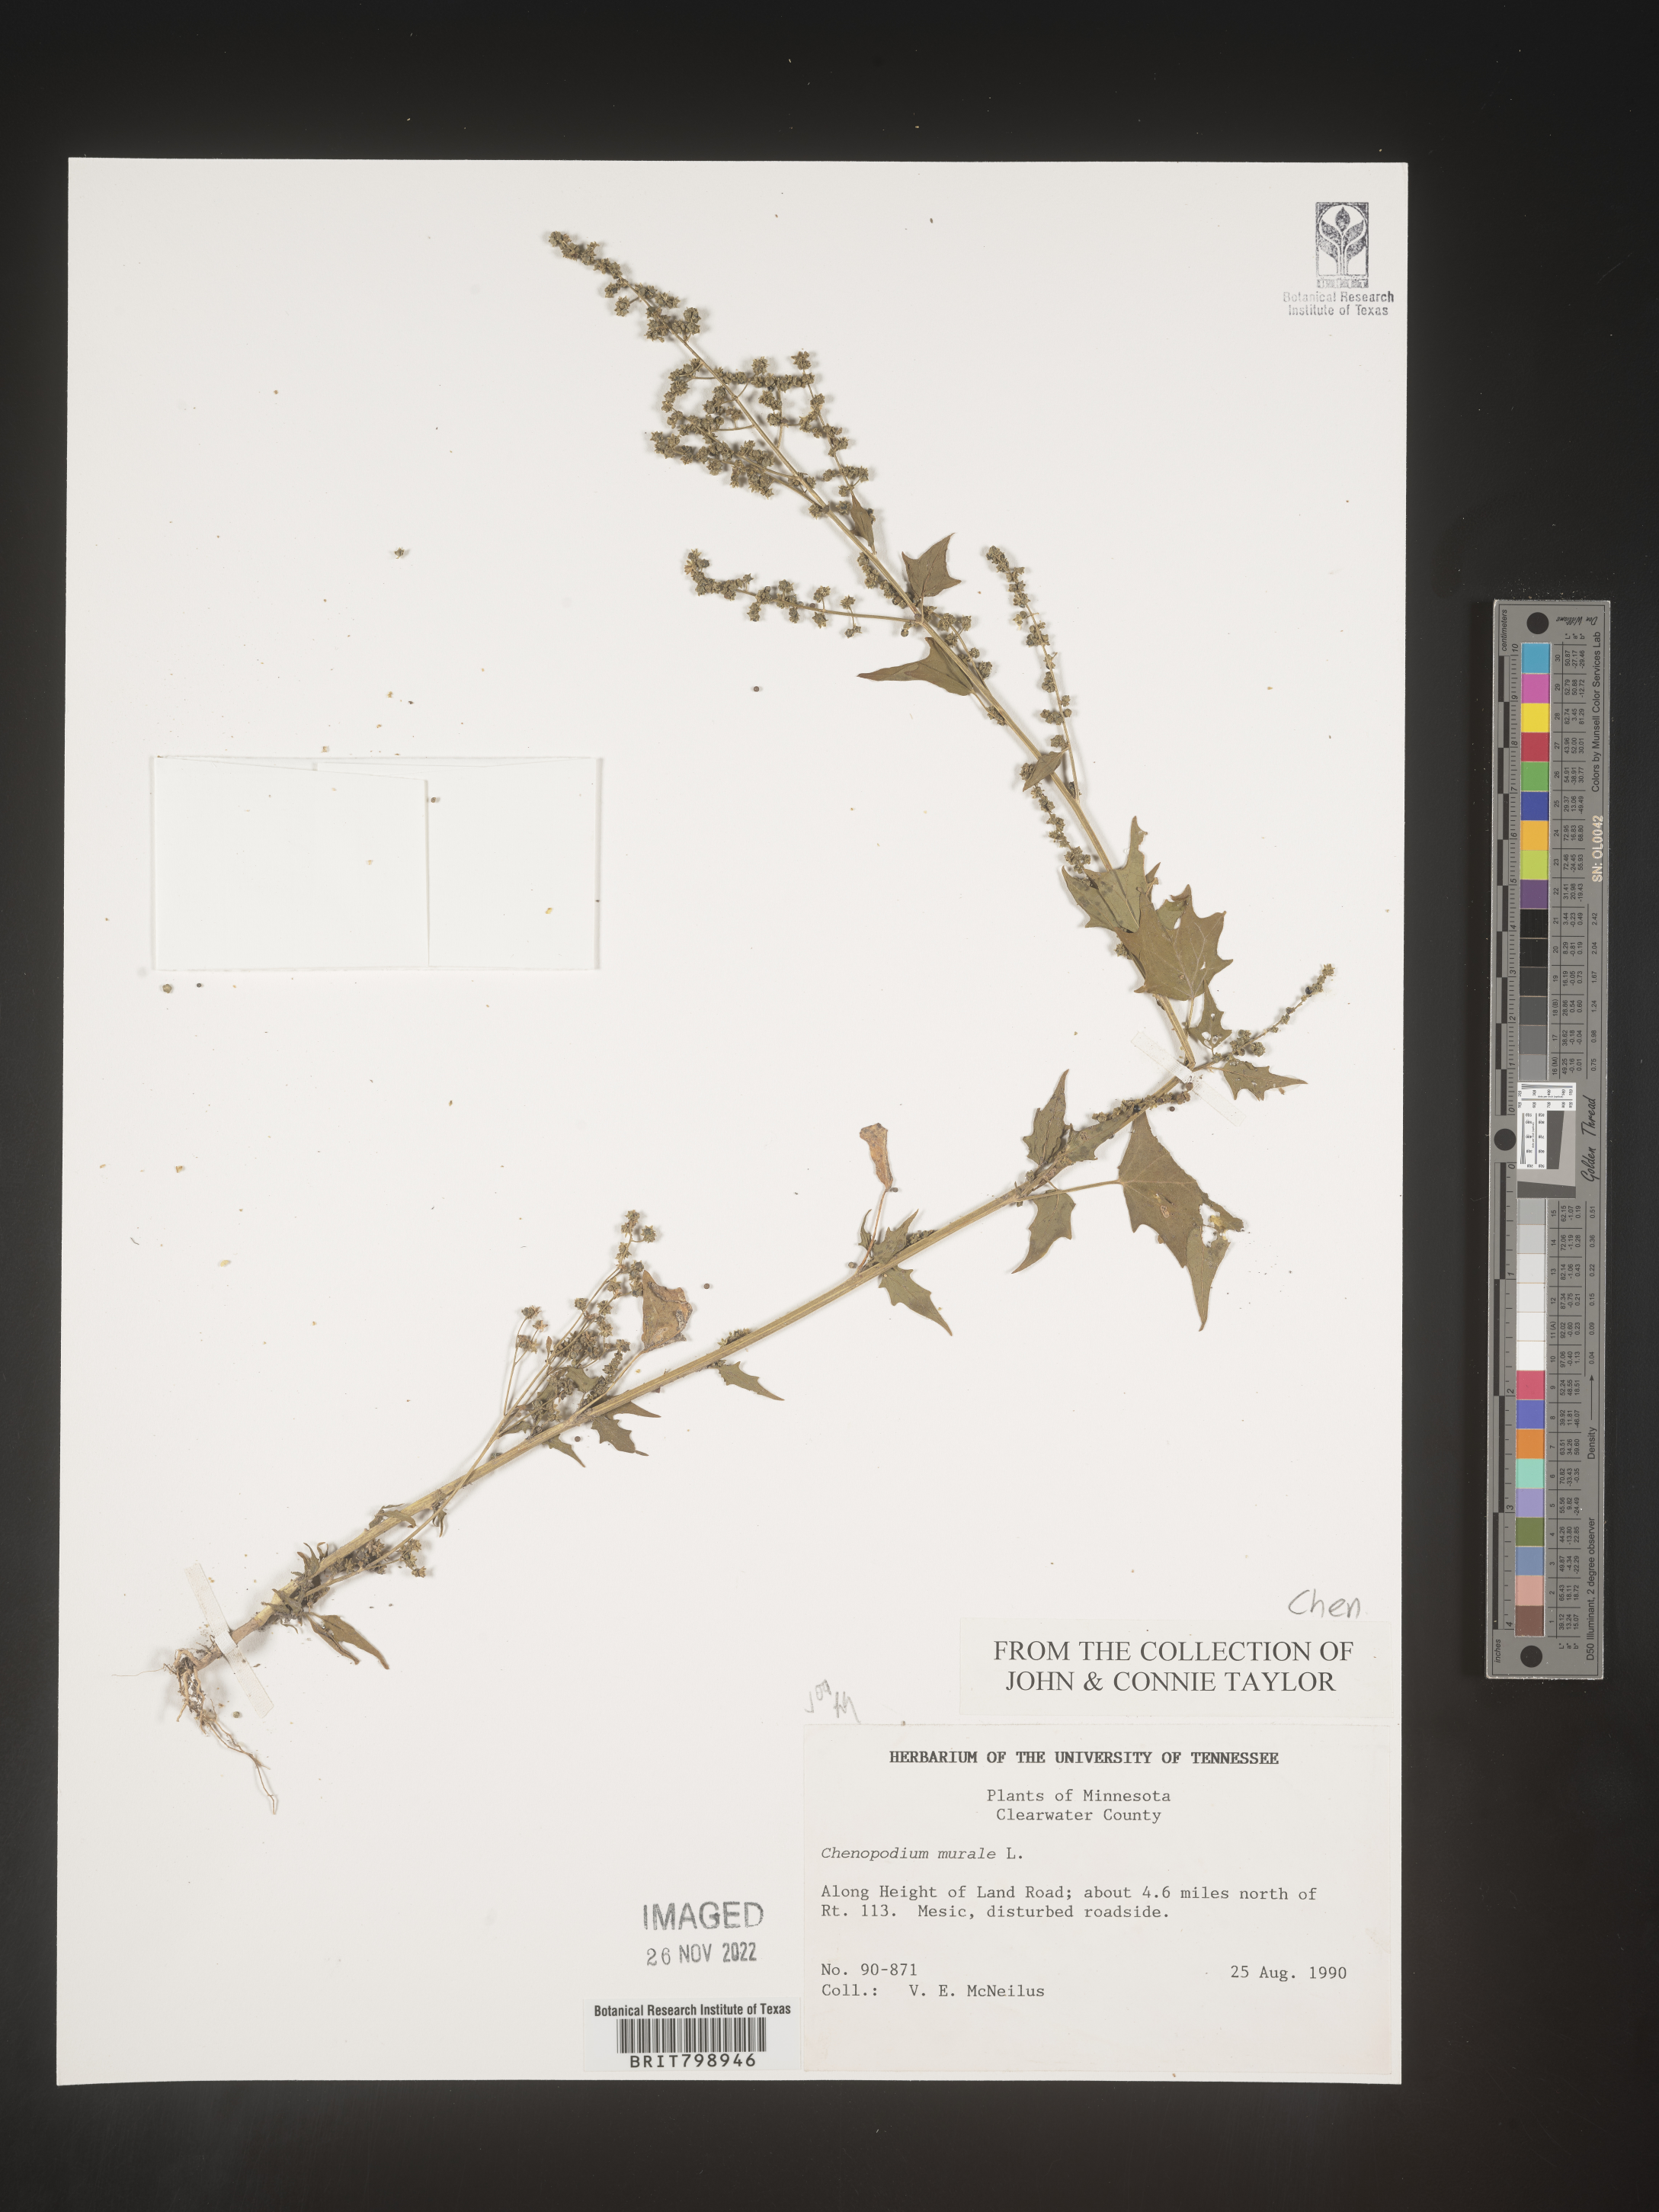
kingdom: Plantae
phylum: Tracheophyta
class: Magnoliopsida
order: Caryophyllales
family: Amaranthaceae
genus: Chenopodiastrum
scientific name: Chenopodiastrum murale
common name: Sowbane
